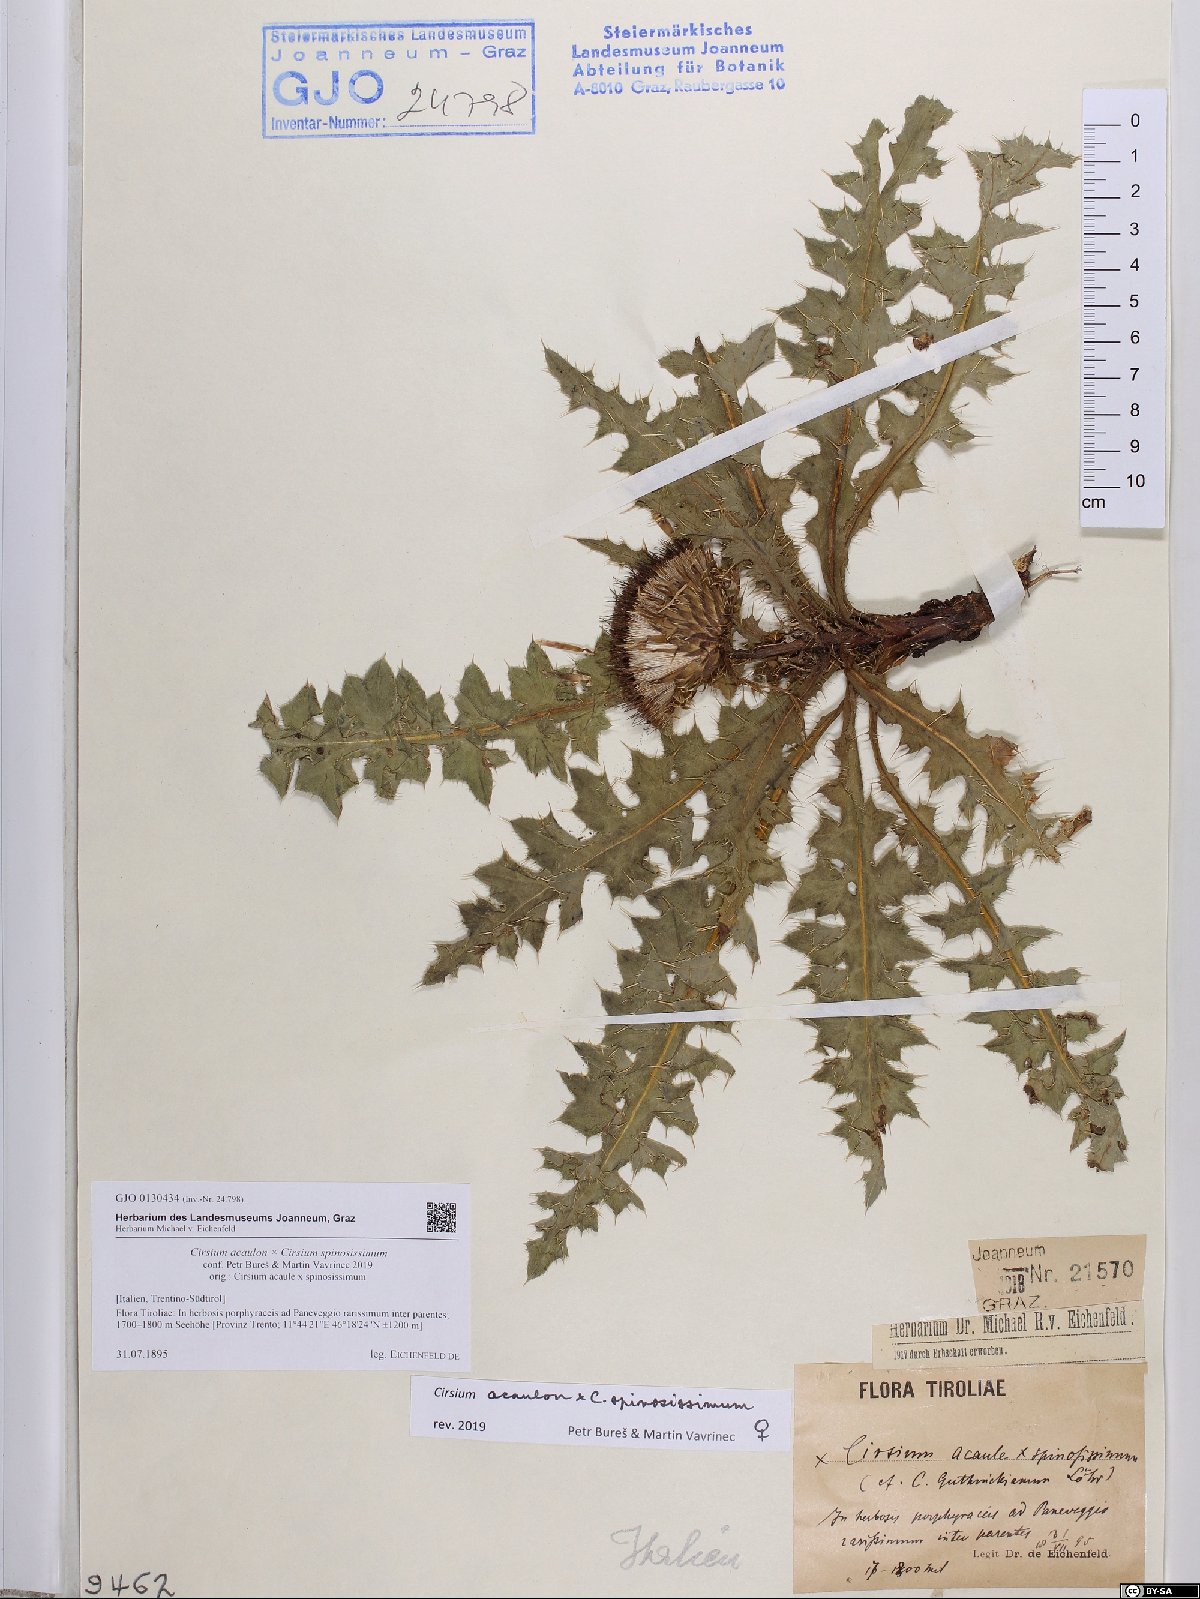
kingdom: Plantae
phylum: Tracheophyta
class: Magnoliopsida
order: Asterales
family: Asteraceae
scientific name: Asteraceae
